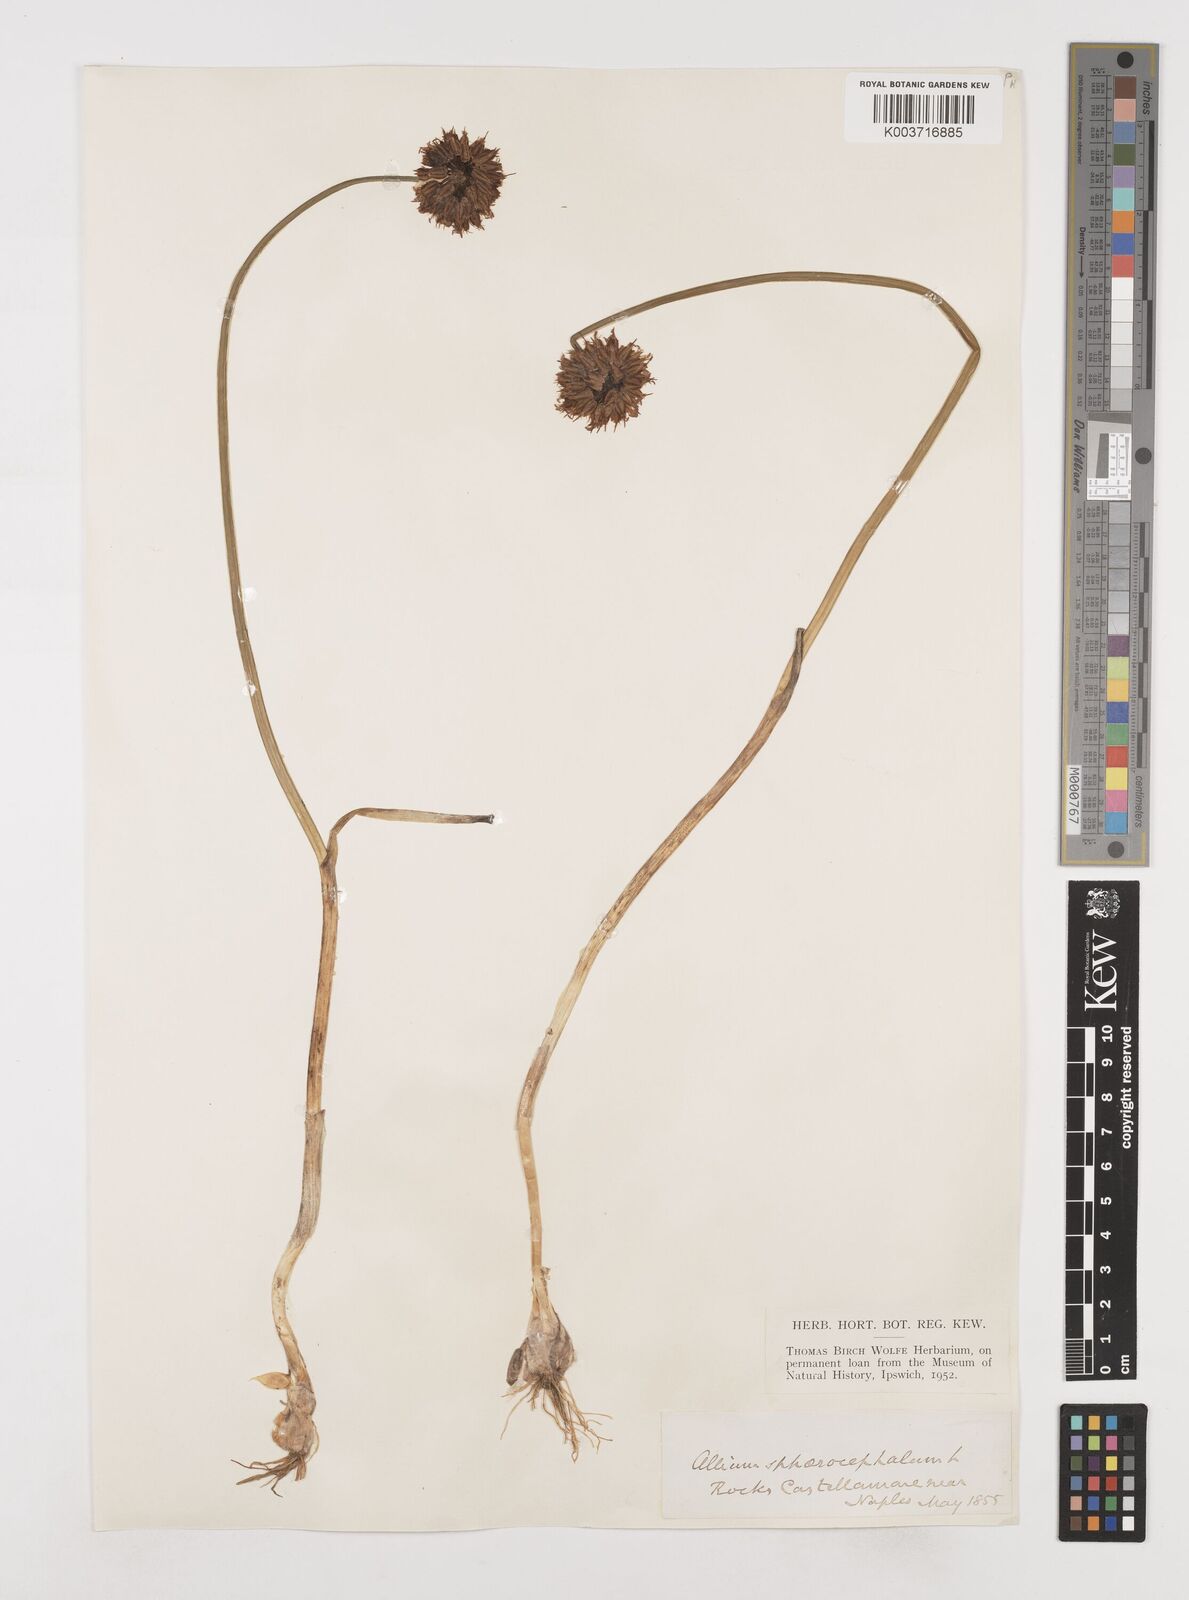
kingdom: Plantae
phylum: Tracheophyta
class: Liliopsida
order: Asparagales
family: Amaryllidaceae
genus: Allium
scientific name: Allium sphaerocephalon
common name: Round-headed leek
